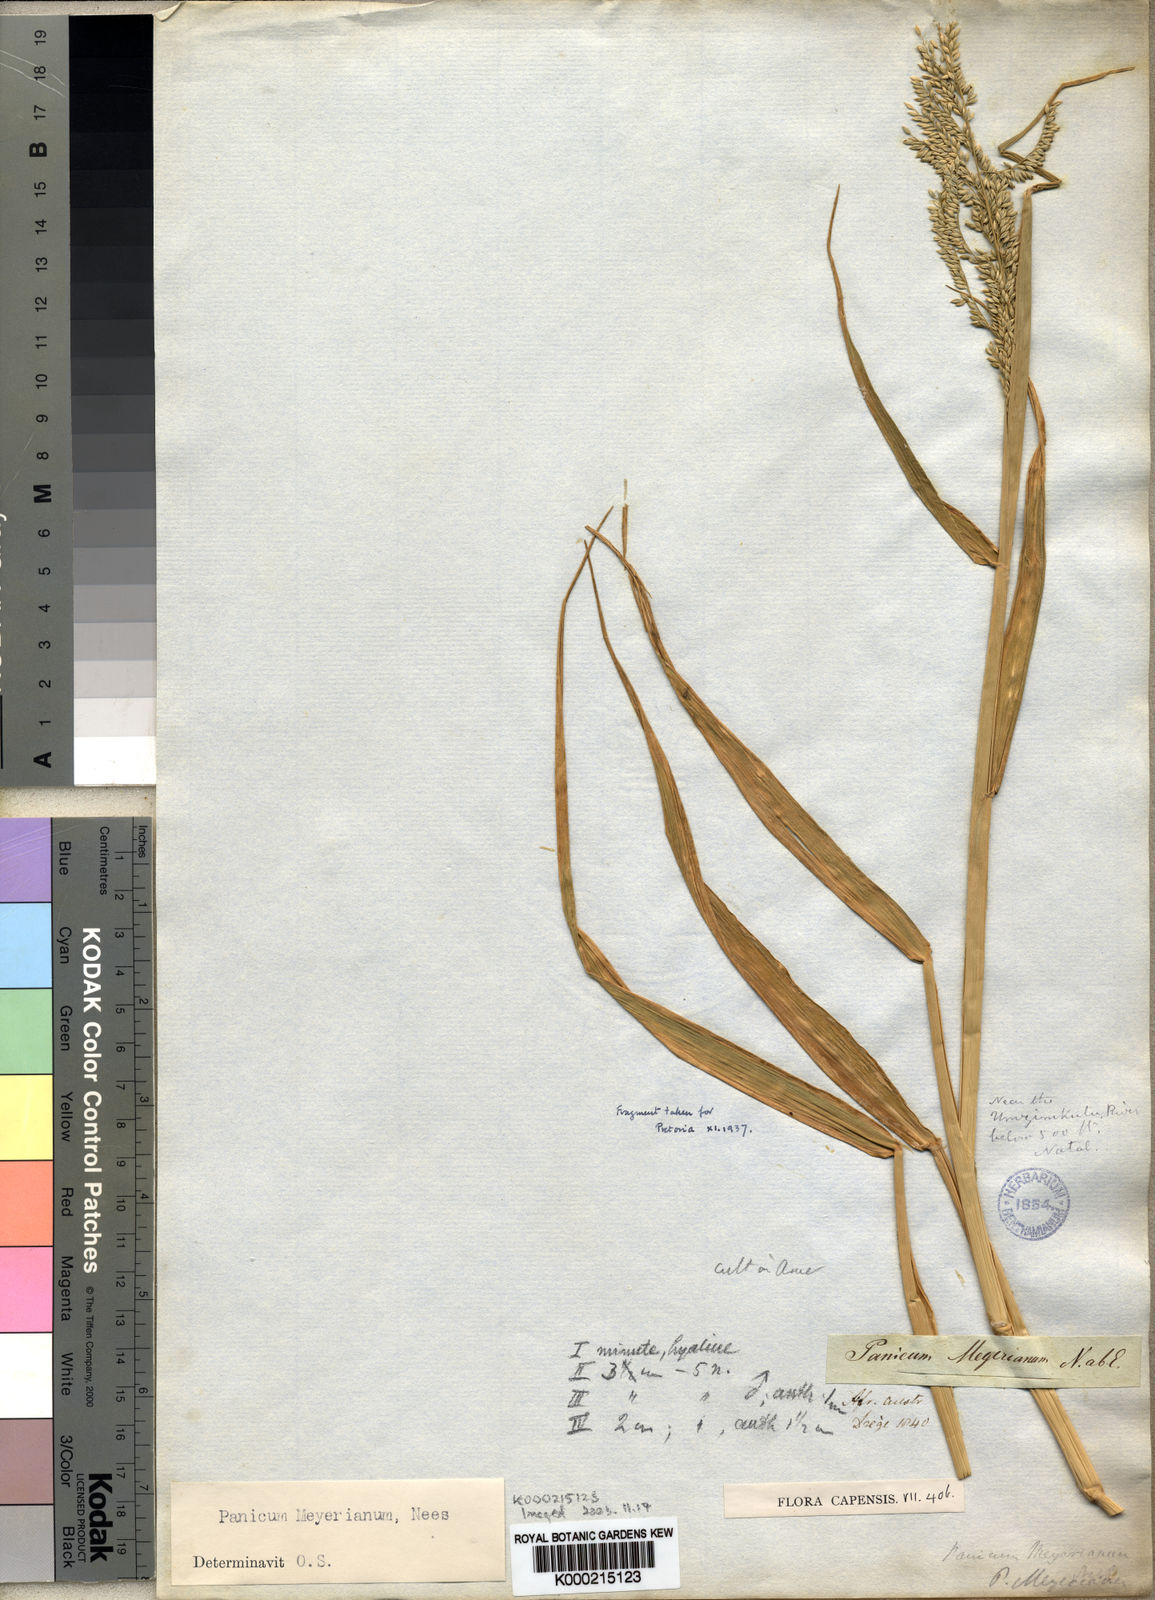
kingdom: Plantae
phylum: Tracheophyta
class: Liliopsida
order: Poales
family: Poaceae
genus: Eriochloa
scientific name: Eriochloa meyeriana
